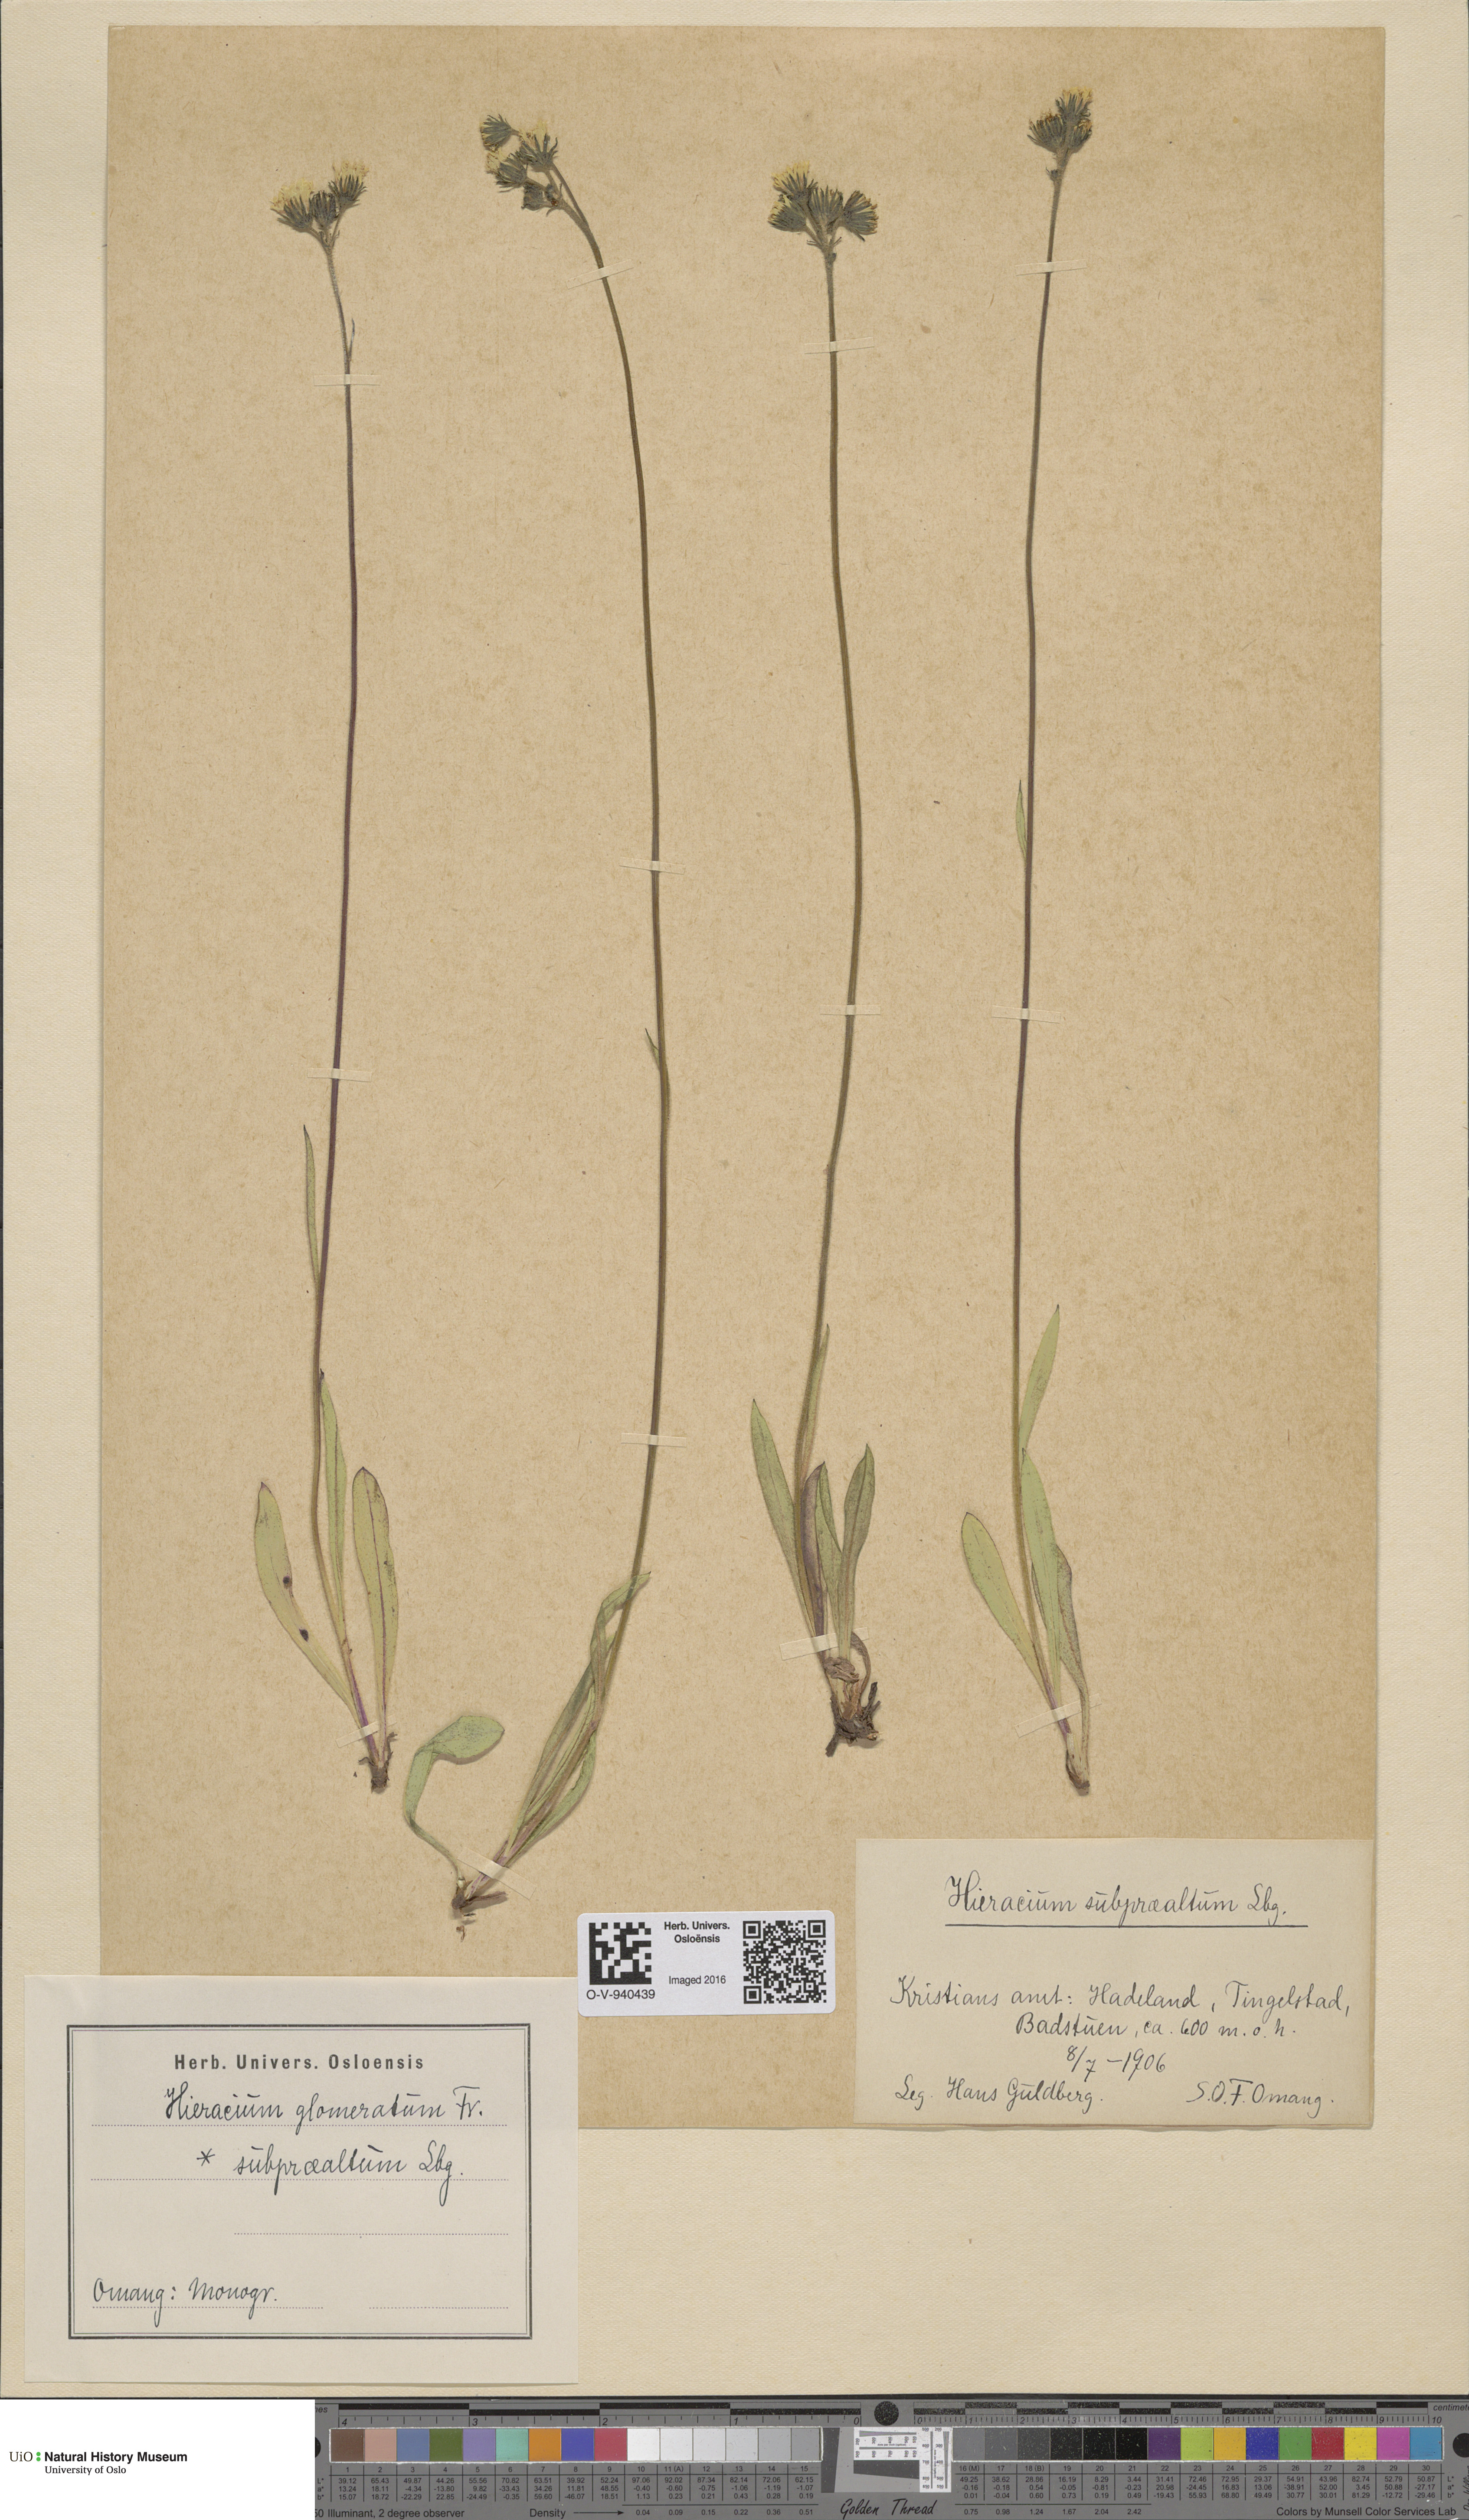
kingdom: Plantae
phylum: Tracheophyta
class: Magnoliopsida
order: Asterales
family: Asteraceae
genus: Pilosella
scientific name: Pilosella glomerata
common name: Queen devil hawkweed
